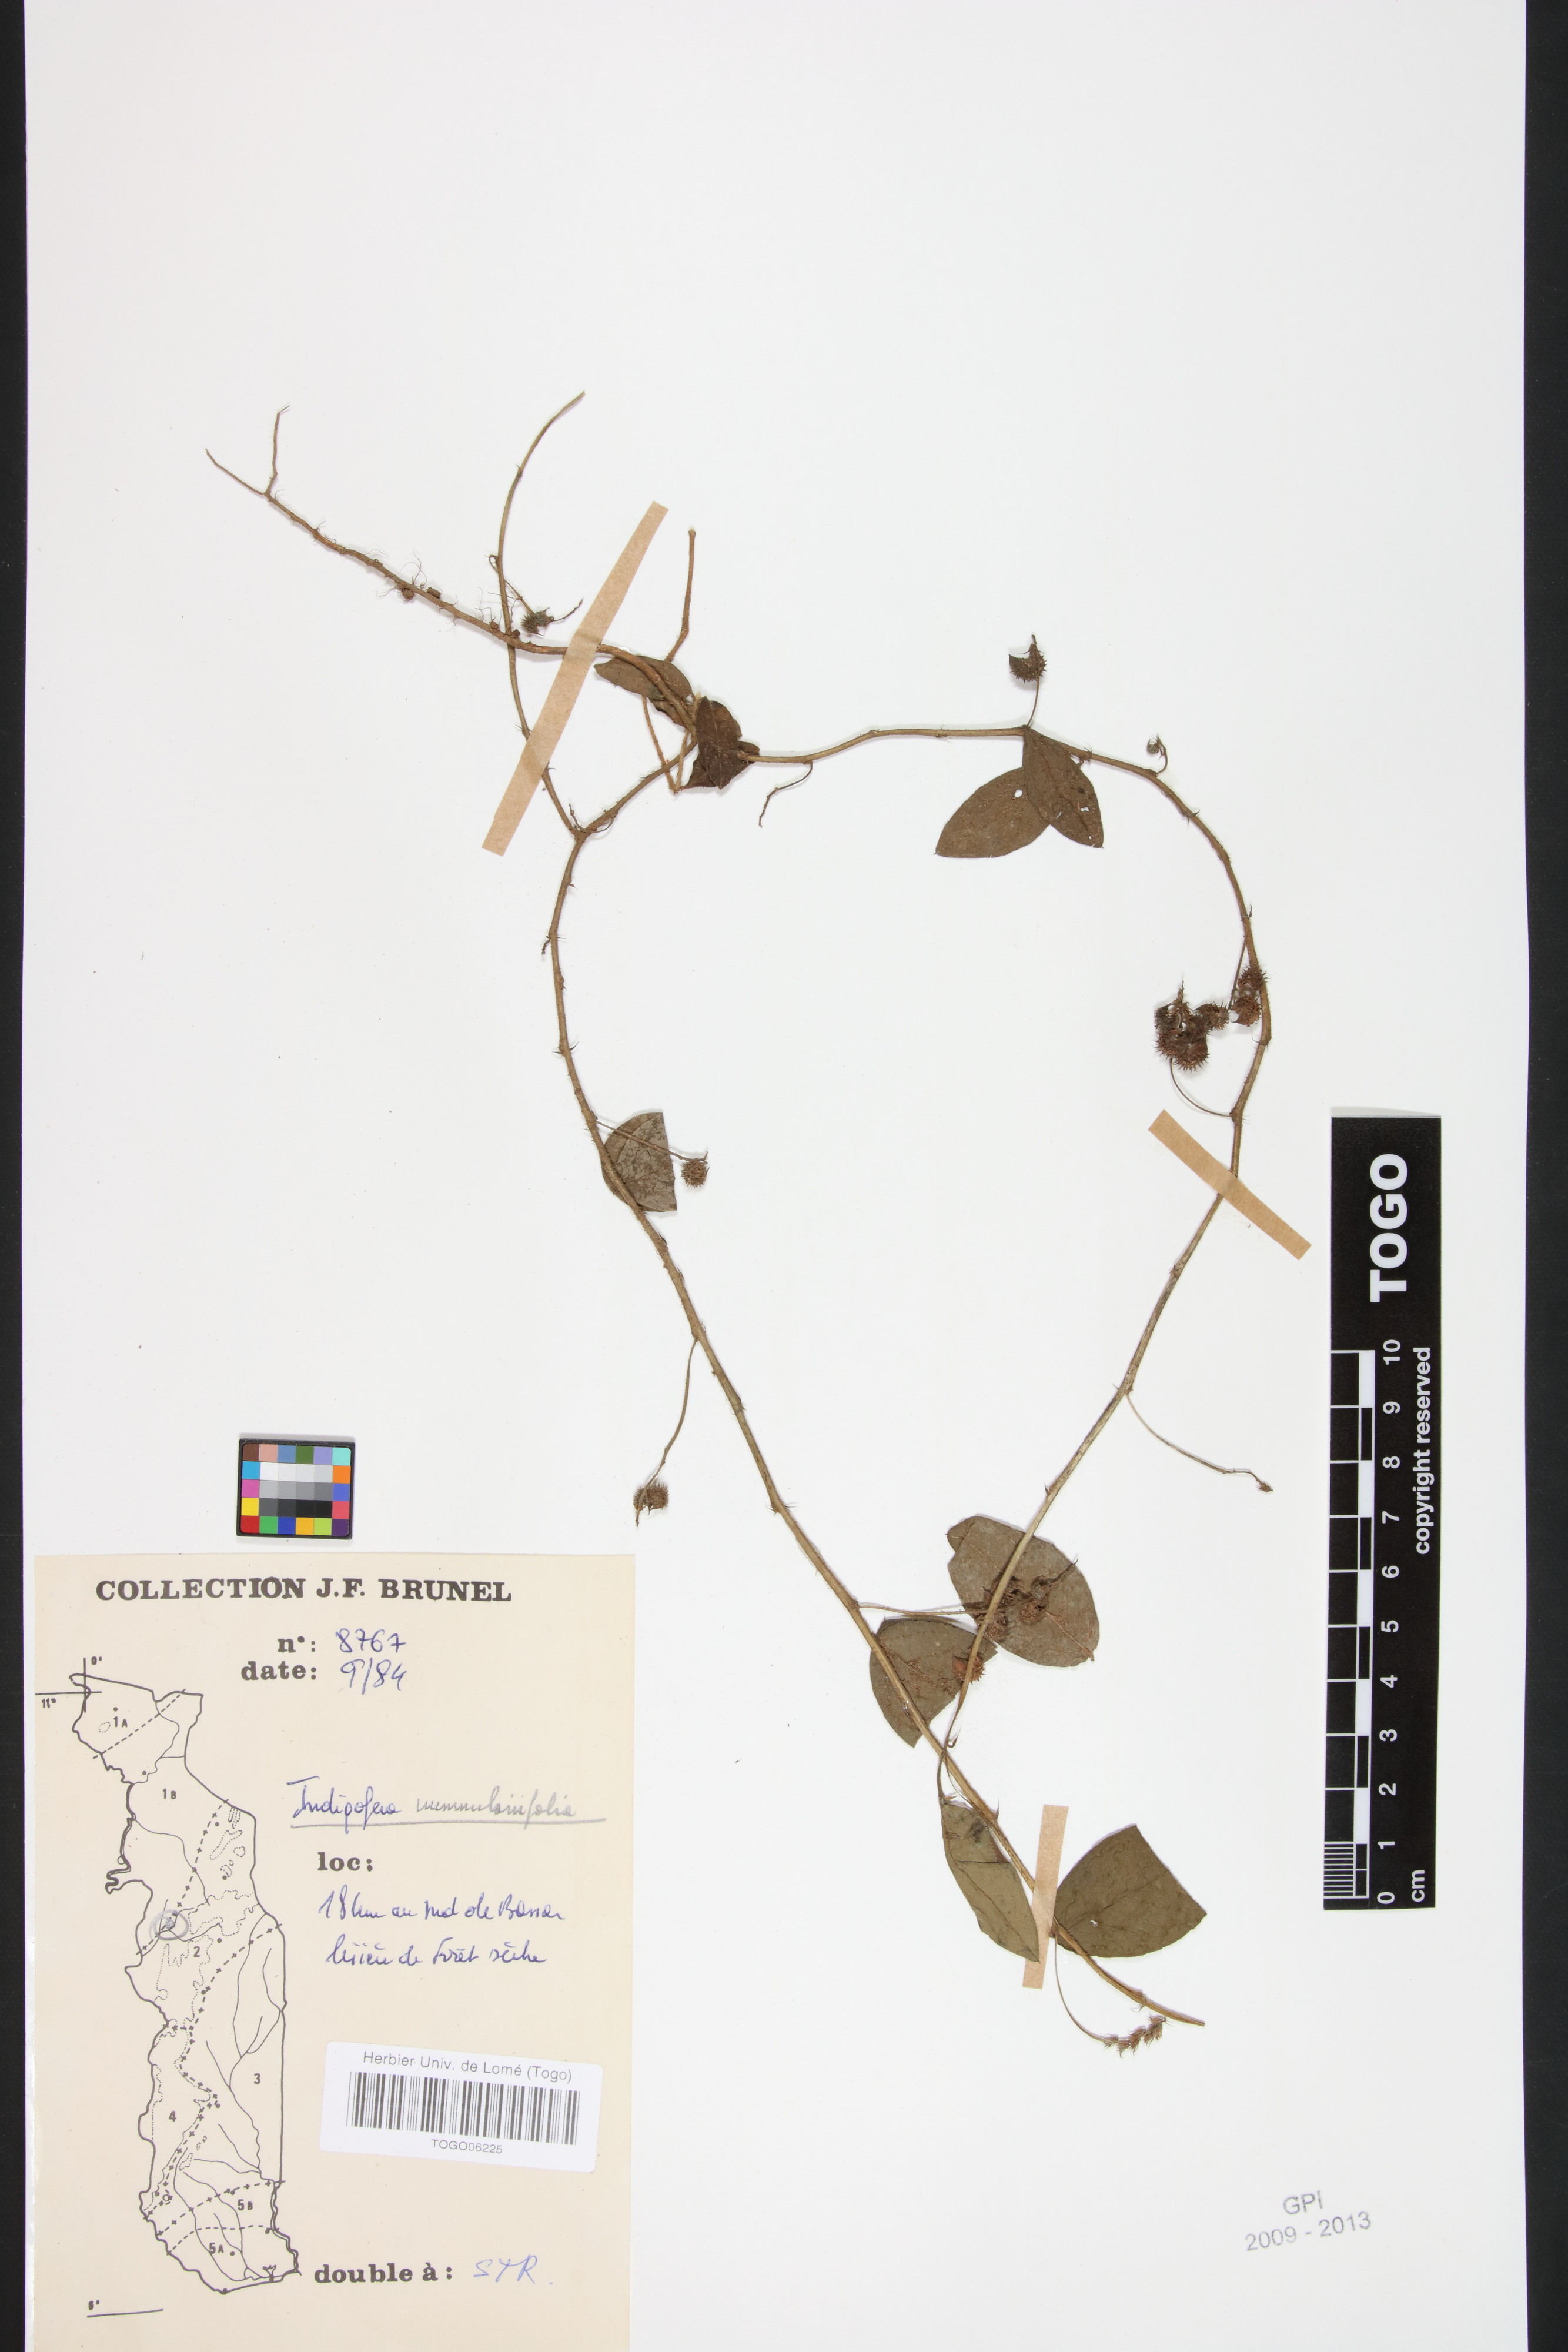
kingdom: Plantae
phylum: Tracheophyta
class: Magnoliopsida
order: Fabales
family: Fabaceae
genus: Indigofera
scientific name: Indigofera nummulariifolia
